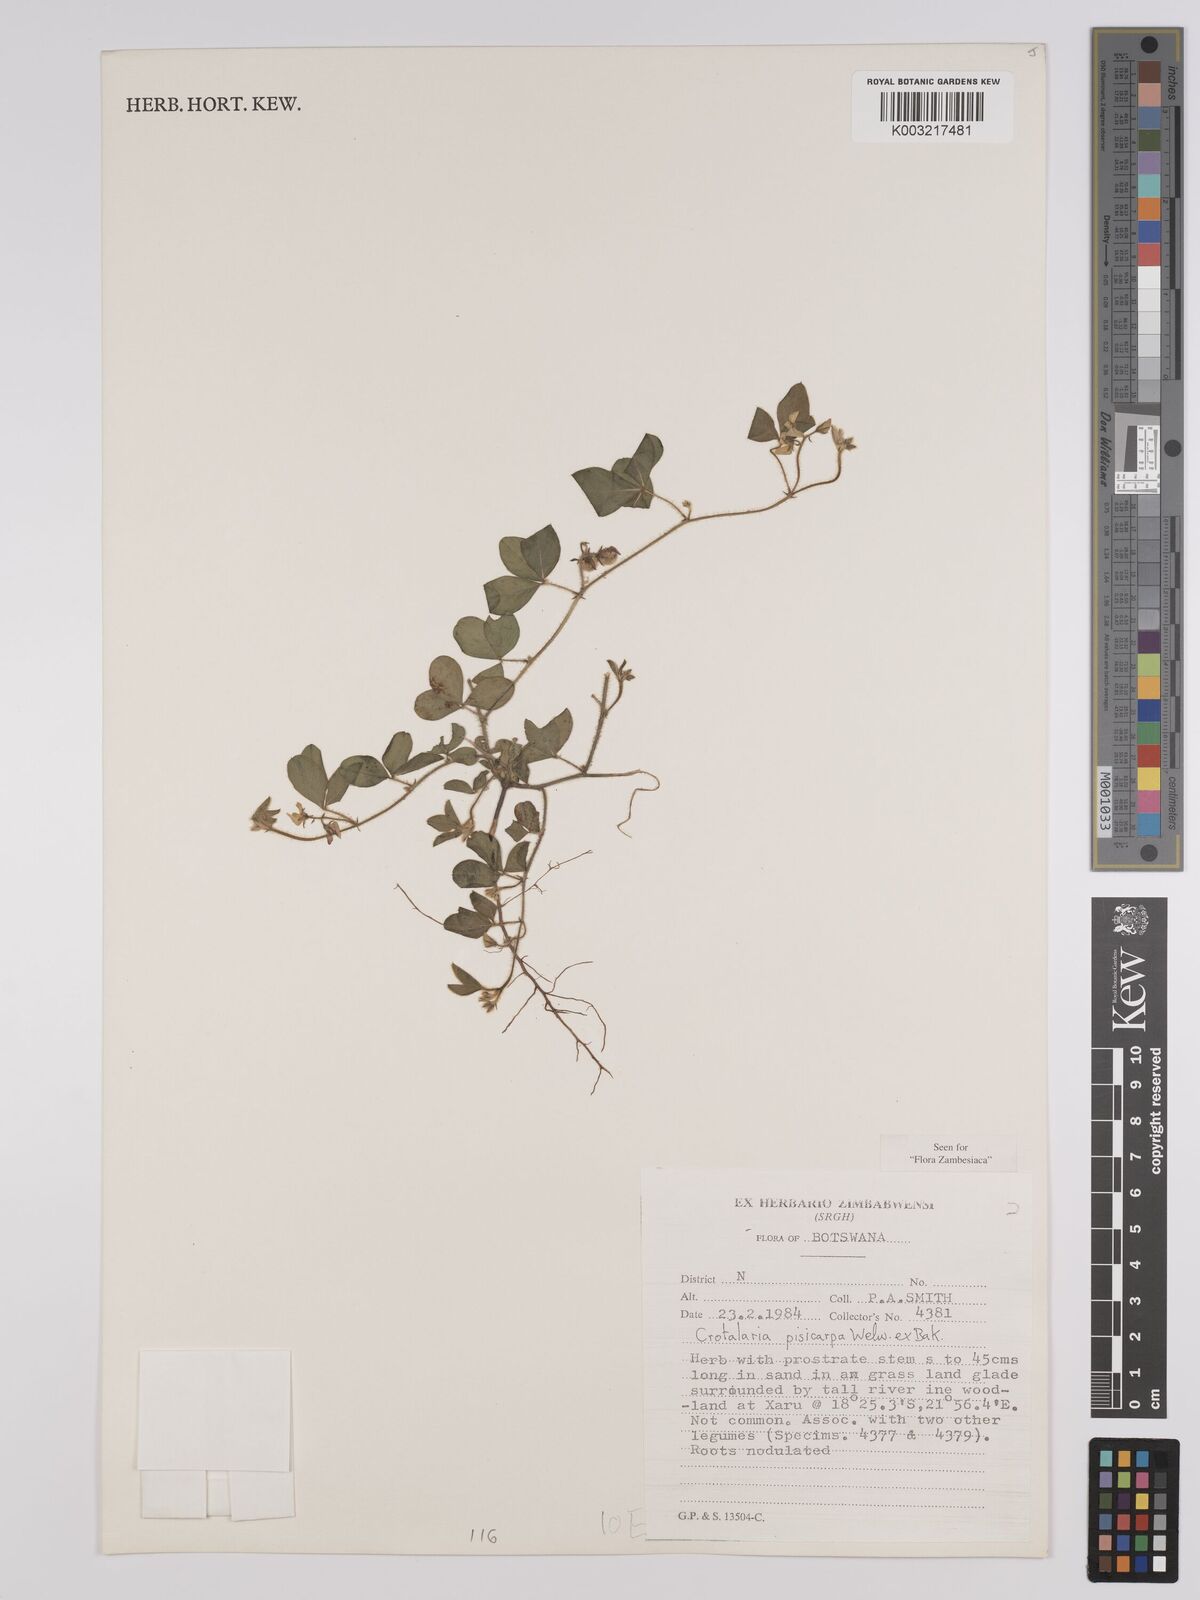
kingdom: Plantae
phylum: Tracheophyta
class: Magnoliopsida
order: Fabales
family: Fabaceae
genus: Crotalaria
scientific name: Crotalaria pisicarpa
